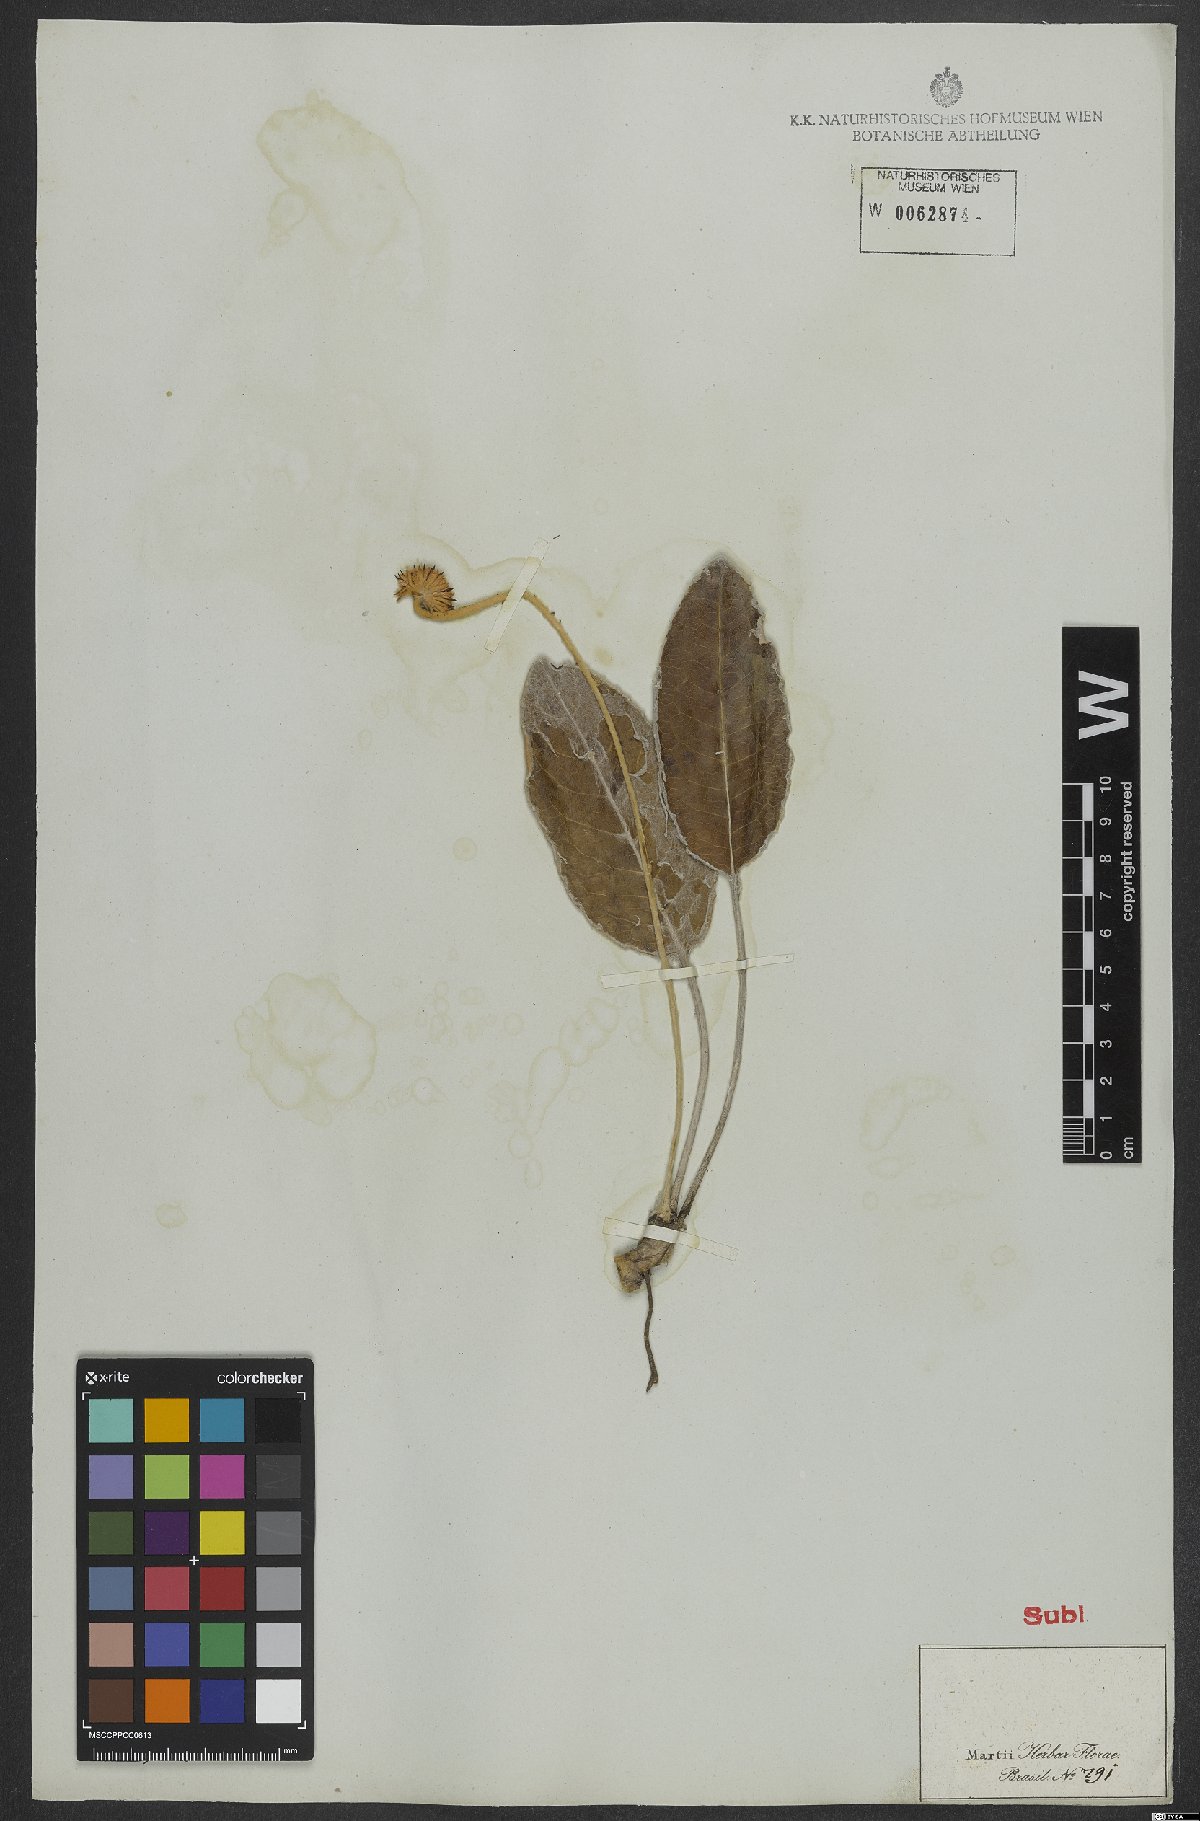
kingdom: Plantae
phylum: Tracheophyta
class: Magnoliopsida
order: Asterales
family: Asteraceae
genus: Chaptalia
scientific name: Chaptalia
